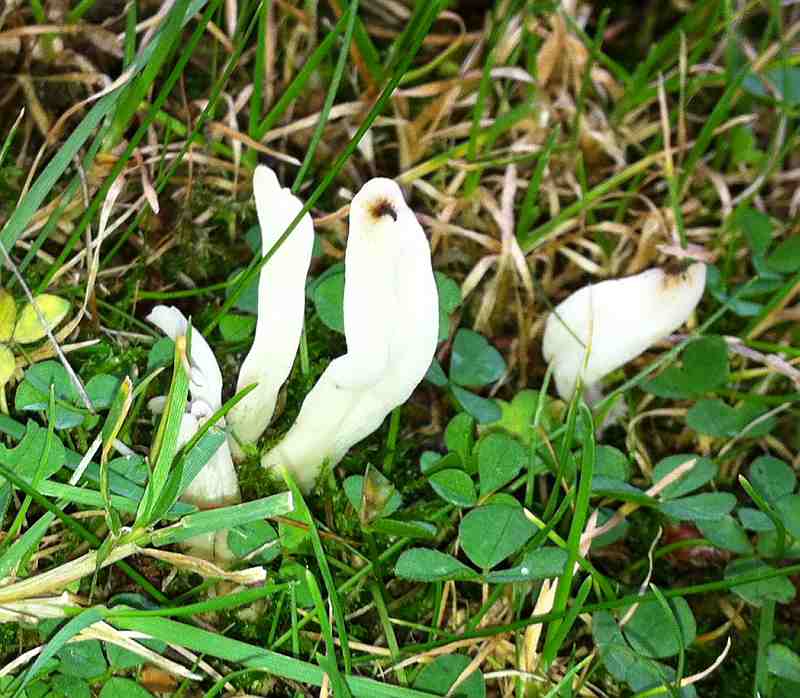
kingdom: Fungi
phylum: Basidiomycota
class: Agaricomycetes
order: Agaricales
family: Clavariaceae
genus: Clavaria
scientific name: Clavaria fragilis
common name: bugtet køllesvamp
